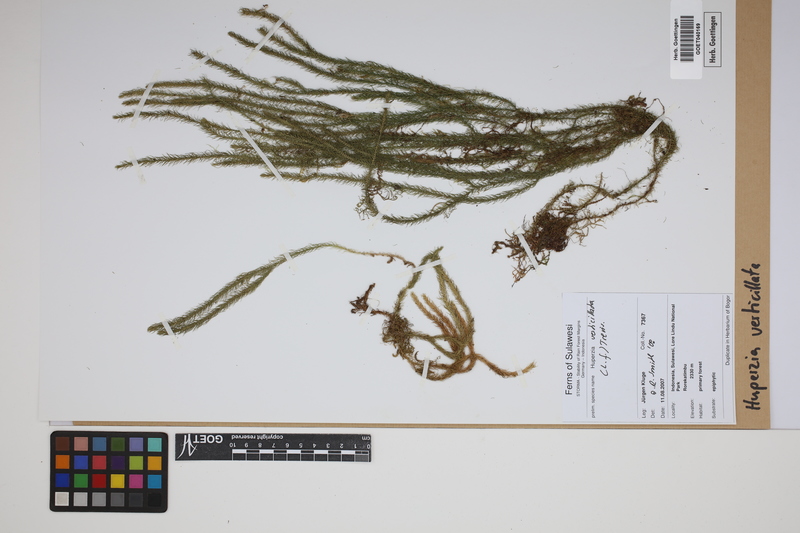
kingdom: Plantae
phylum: Tracheophyta
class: Lycopodiopsida
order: Lycopodiales
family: Lycopodiaceae
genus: Phlegmariurus
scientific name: Phlegmariurus verticillatus
